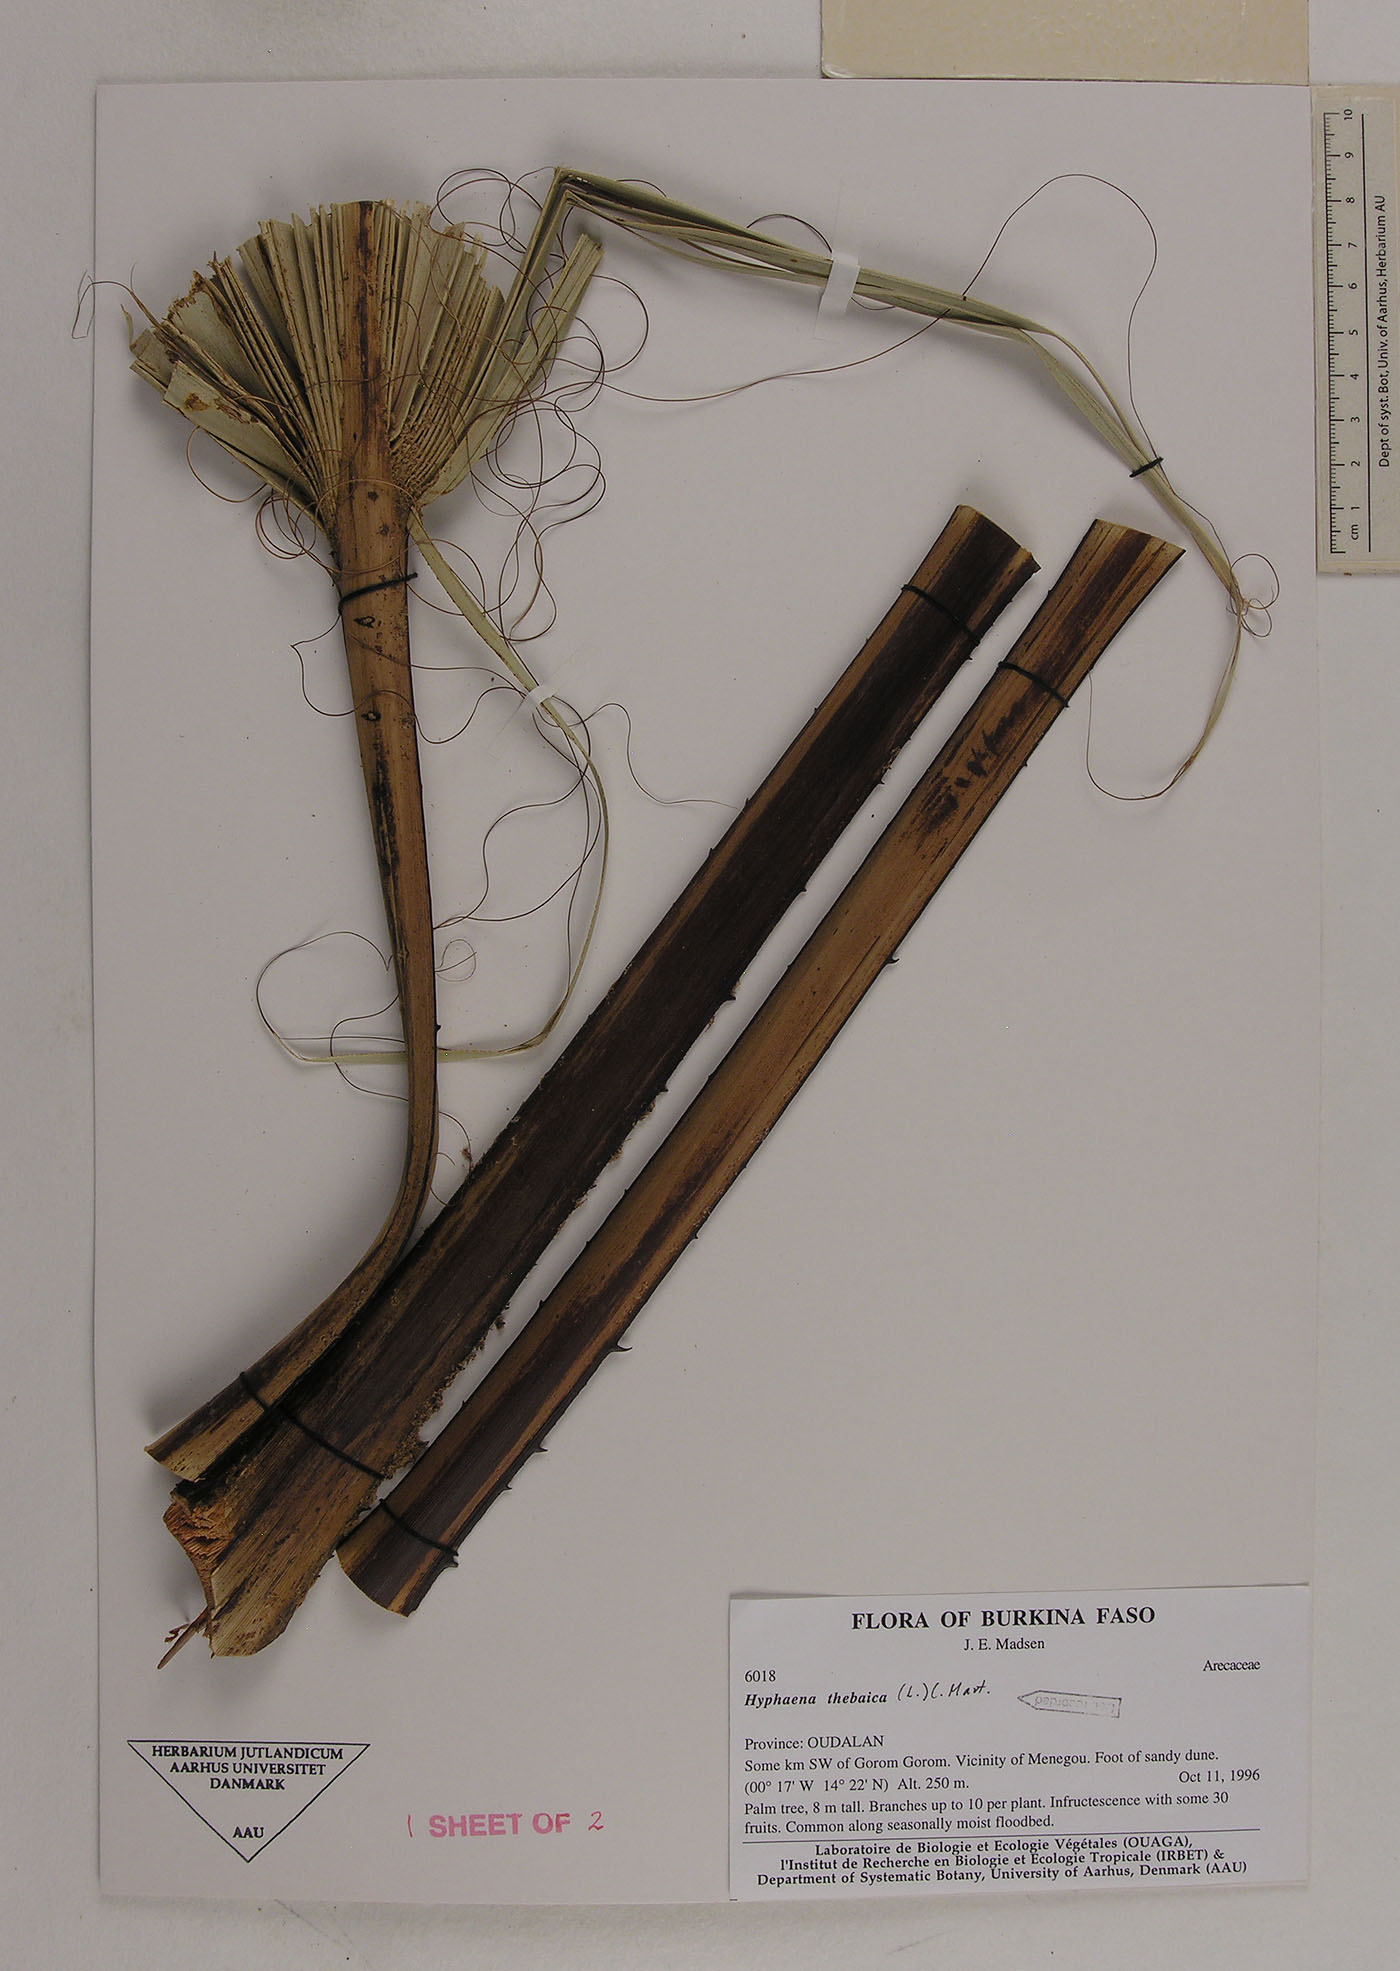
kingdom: Plantae
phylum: Tracheophyta
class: Liliopsida
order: Arecales
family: Arecaceae
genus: Hyphaene
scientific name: Hyphaene thebaica
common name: Doum palm
